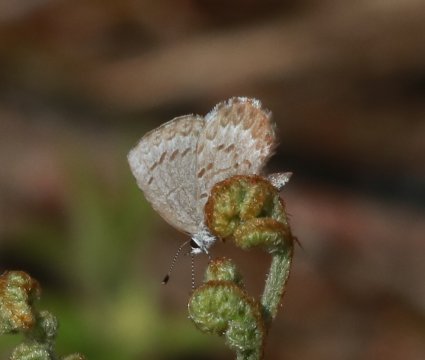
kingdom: Animalia
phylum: Arthropoda
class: Insecta
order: Lepidoptera
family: Lycaenidae
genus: Celastrina
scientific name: Celastrina lucia
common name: Northern Spring Azure
